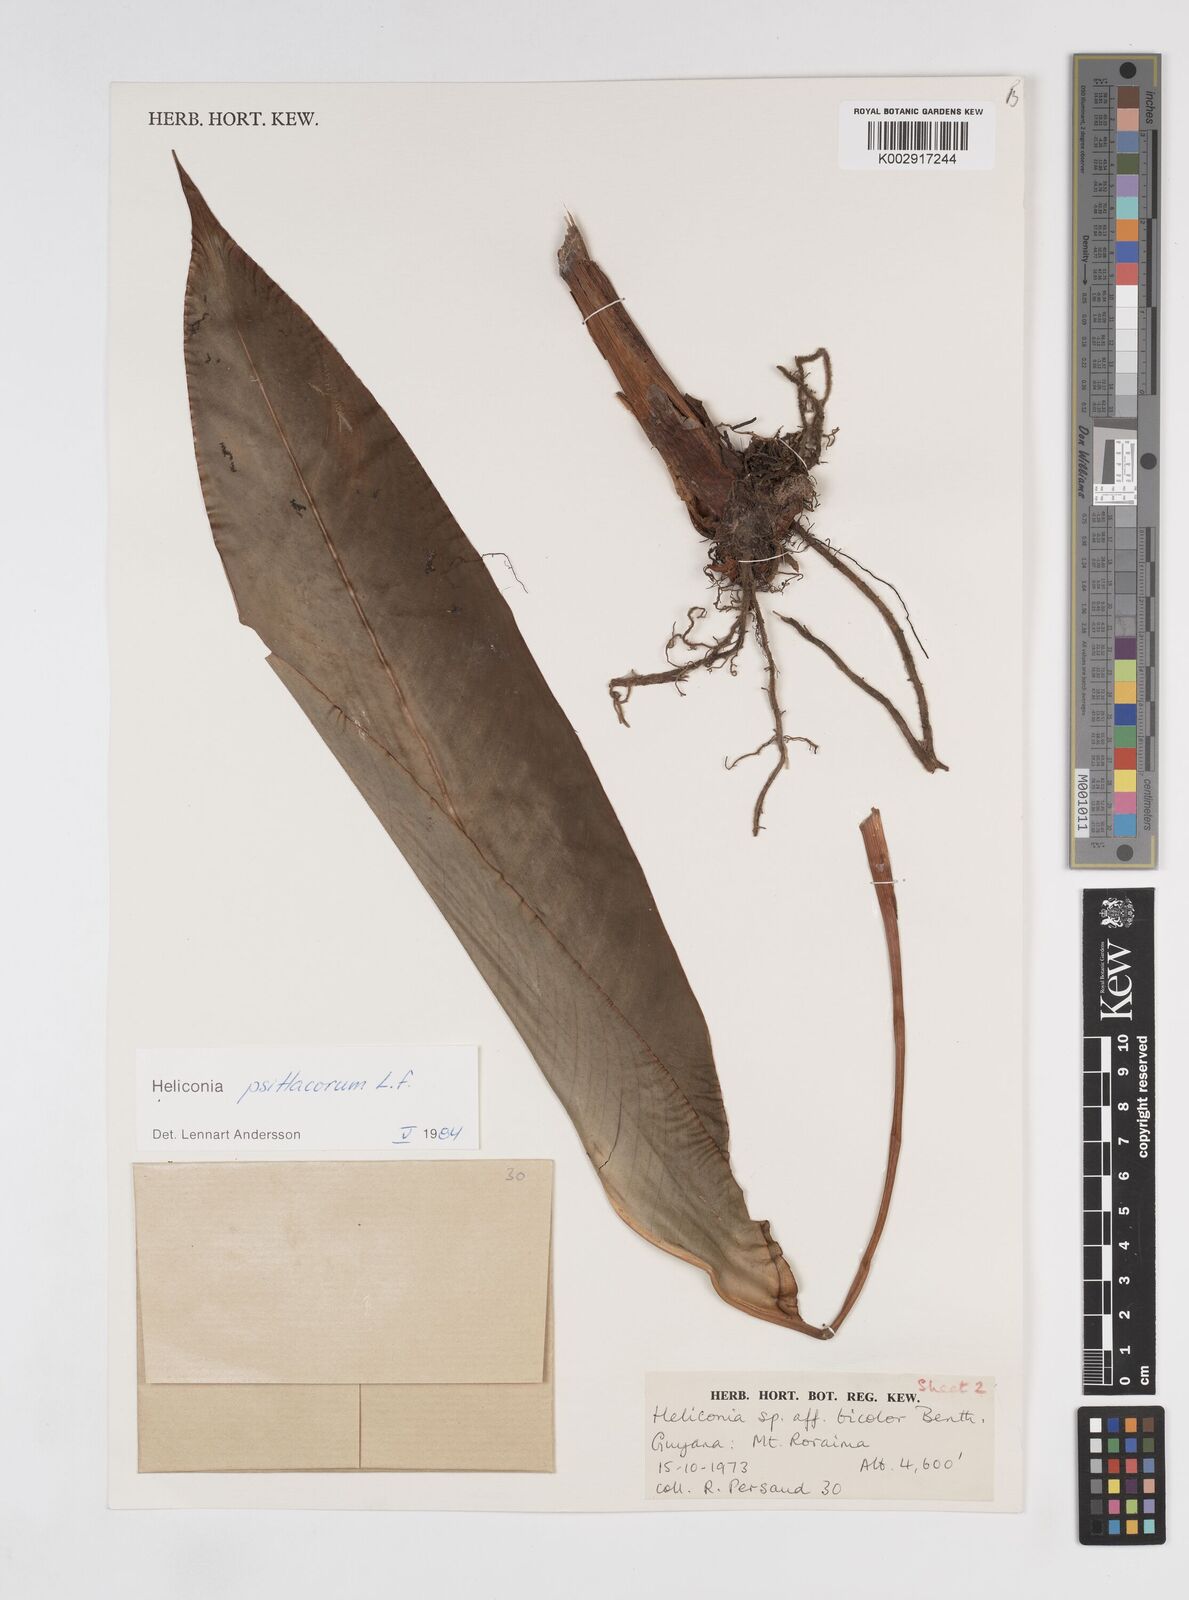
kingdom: Plantae
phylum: Tracheophyta
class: Liliopsida
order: Zingiberales
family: Heliconiaceae
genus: Heliconia
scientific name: Heliconia psittacorum
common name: Parrot's-flower
